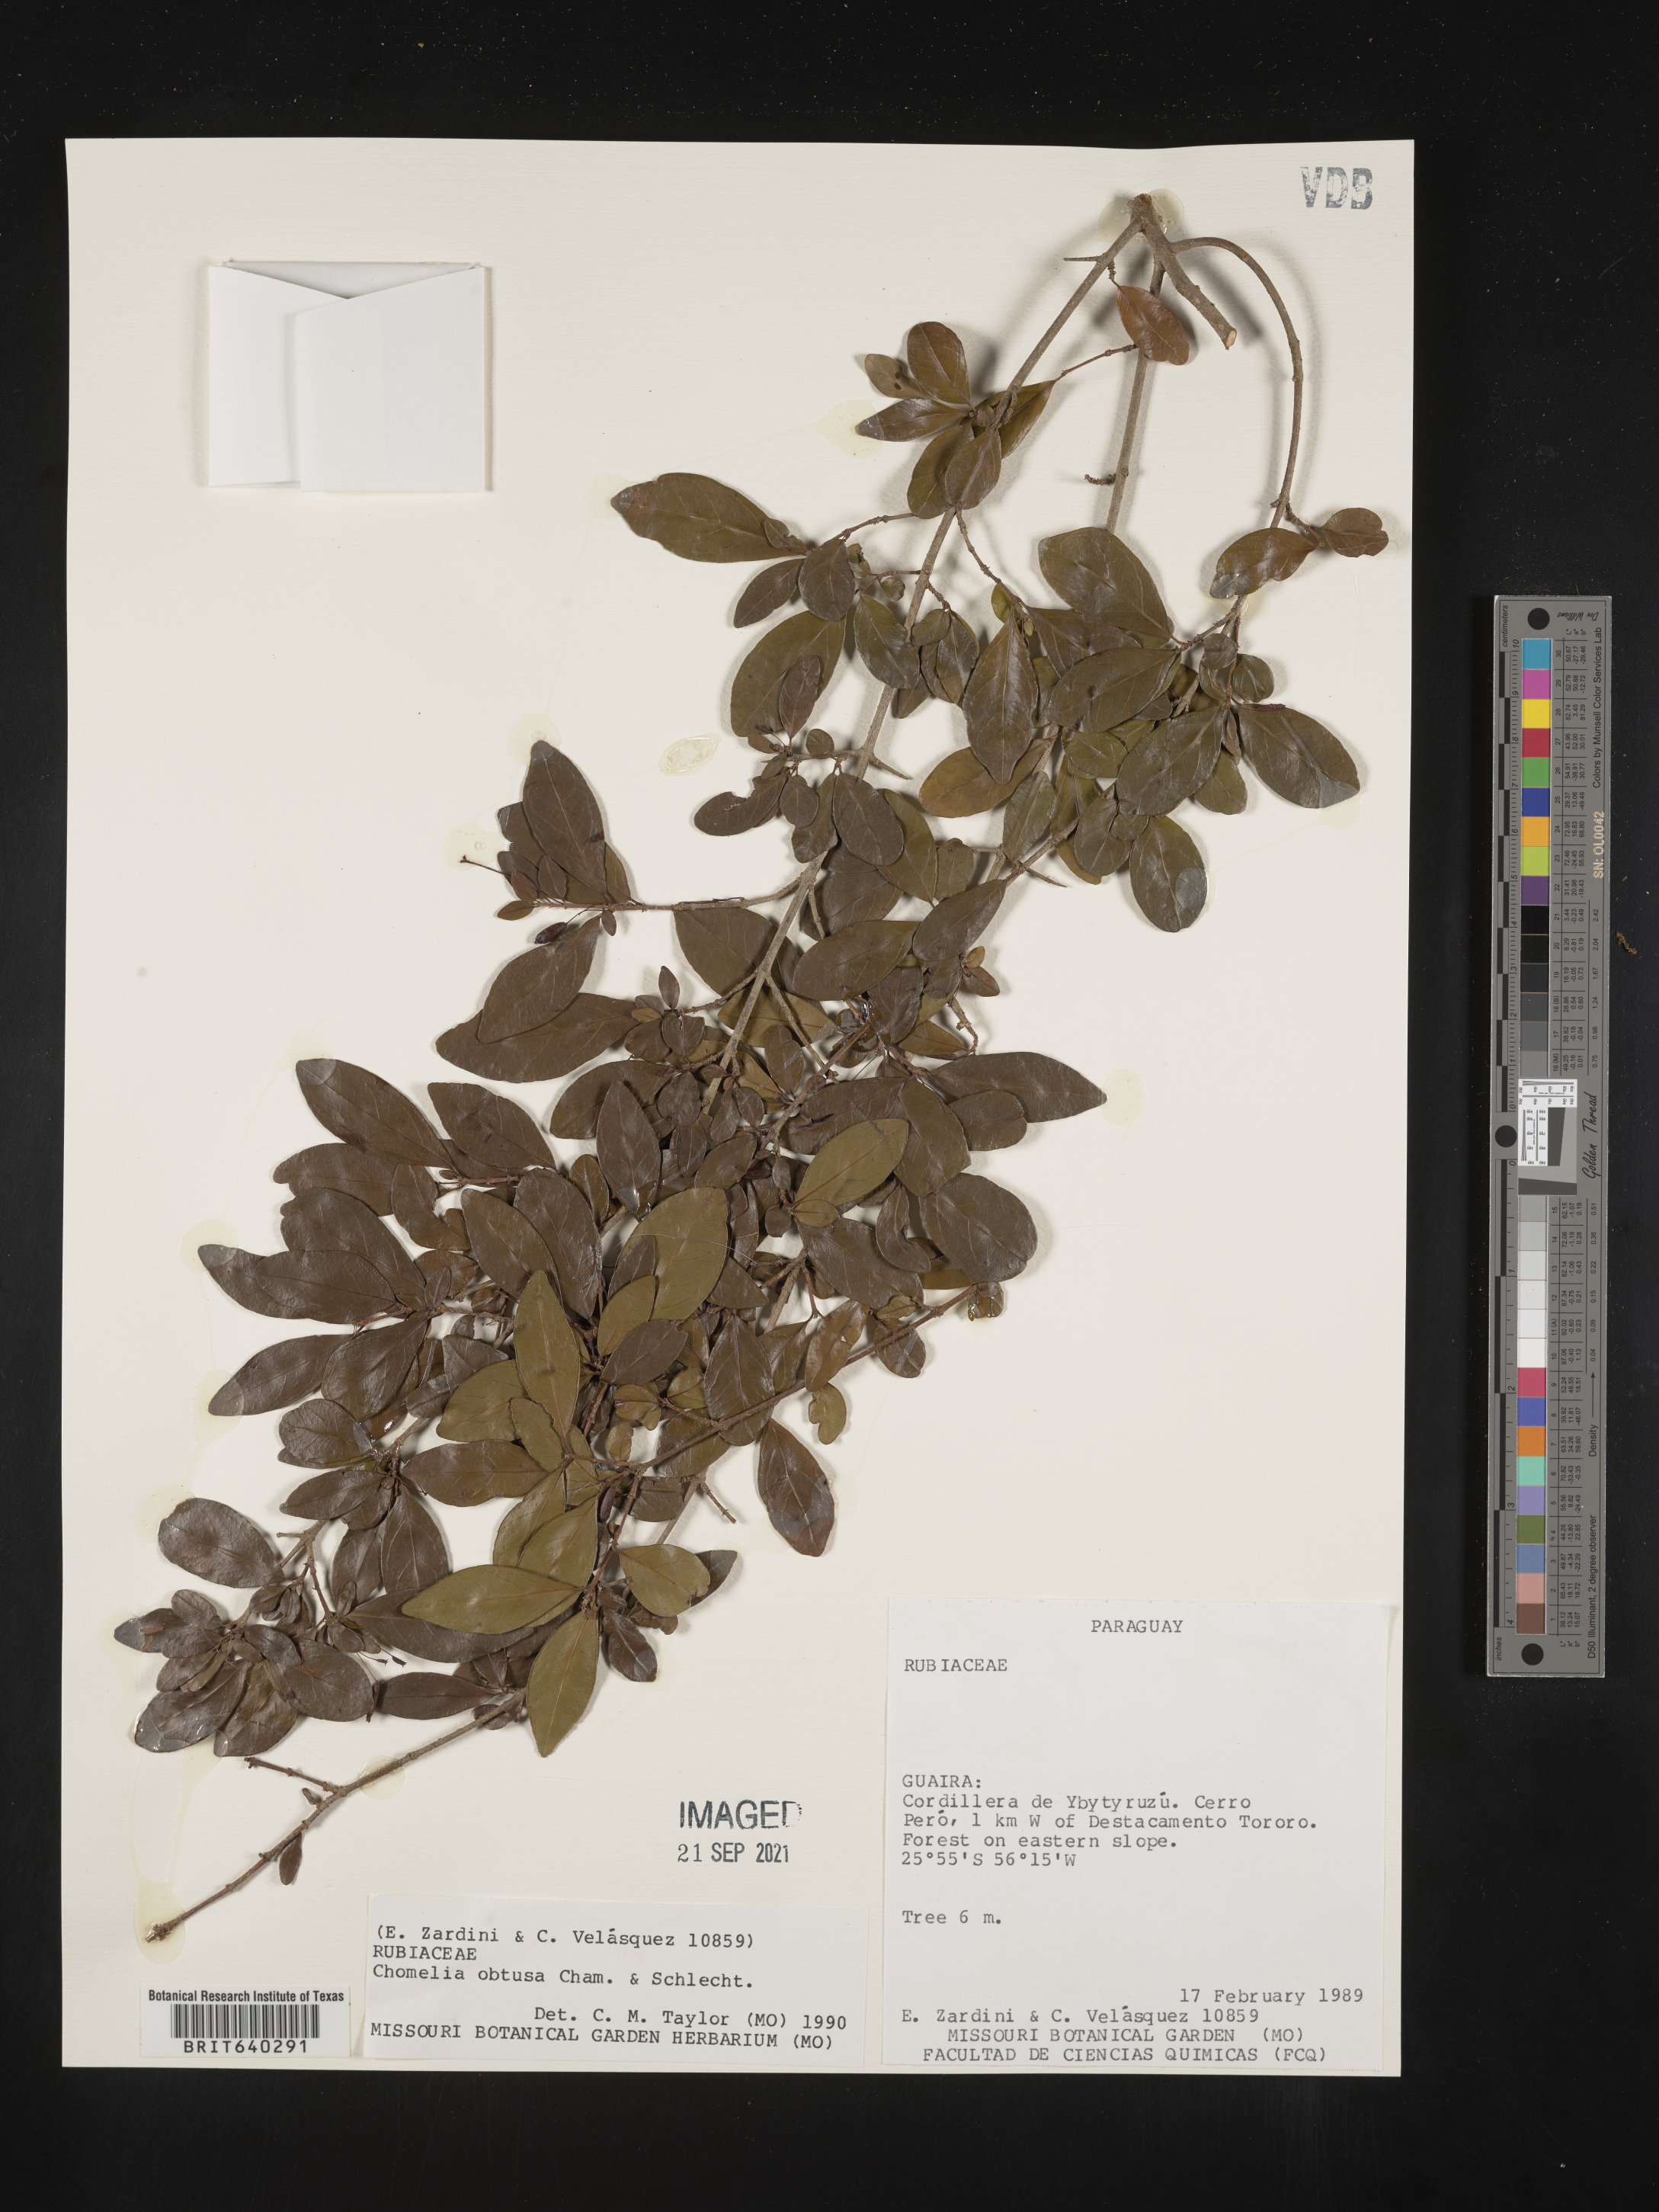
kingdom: Plantae
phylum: Tracheophyta
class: Magnoliopsida
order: Gentianales
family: Rubiaceae
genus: Chomelia
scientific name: Chomelia
